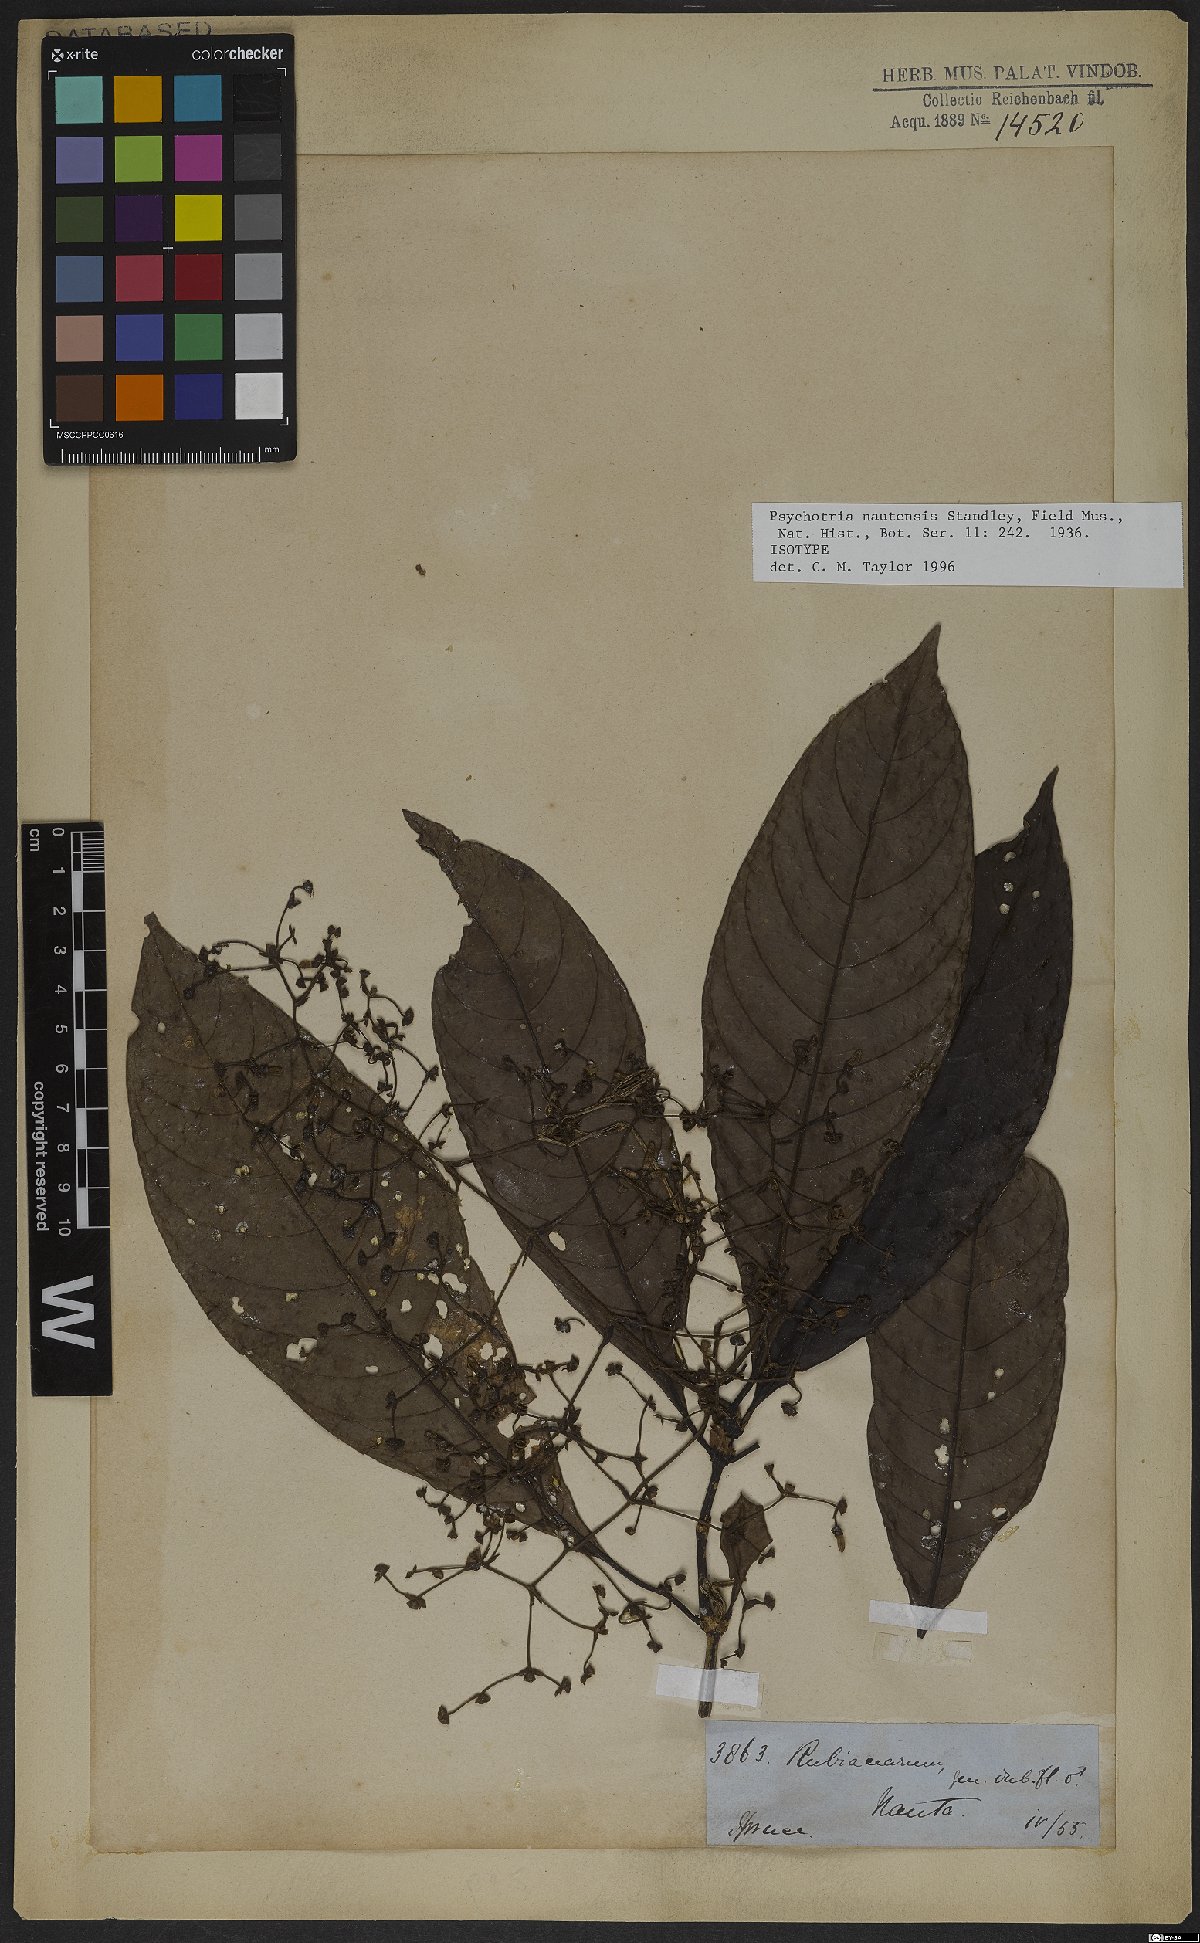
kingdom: Plantae
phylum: Tracheophyta
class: Magnoliopsida
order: Gentianales
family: Rubiaceae
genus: Palicourea
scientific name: Palicourea nautensis
